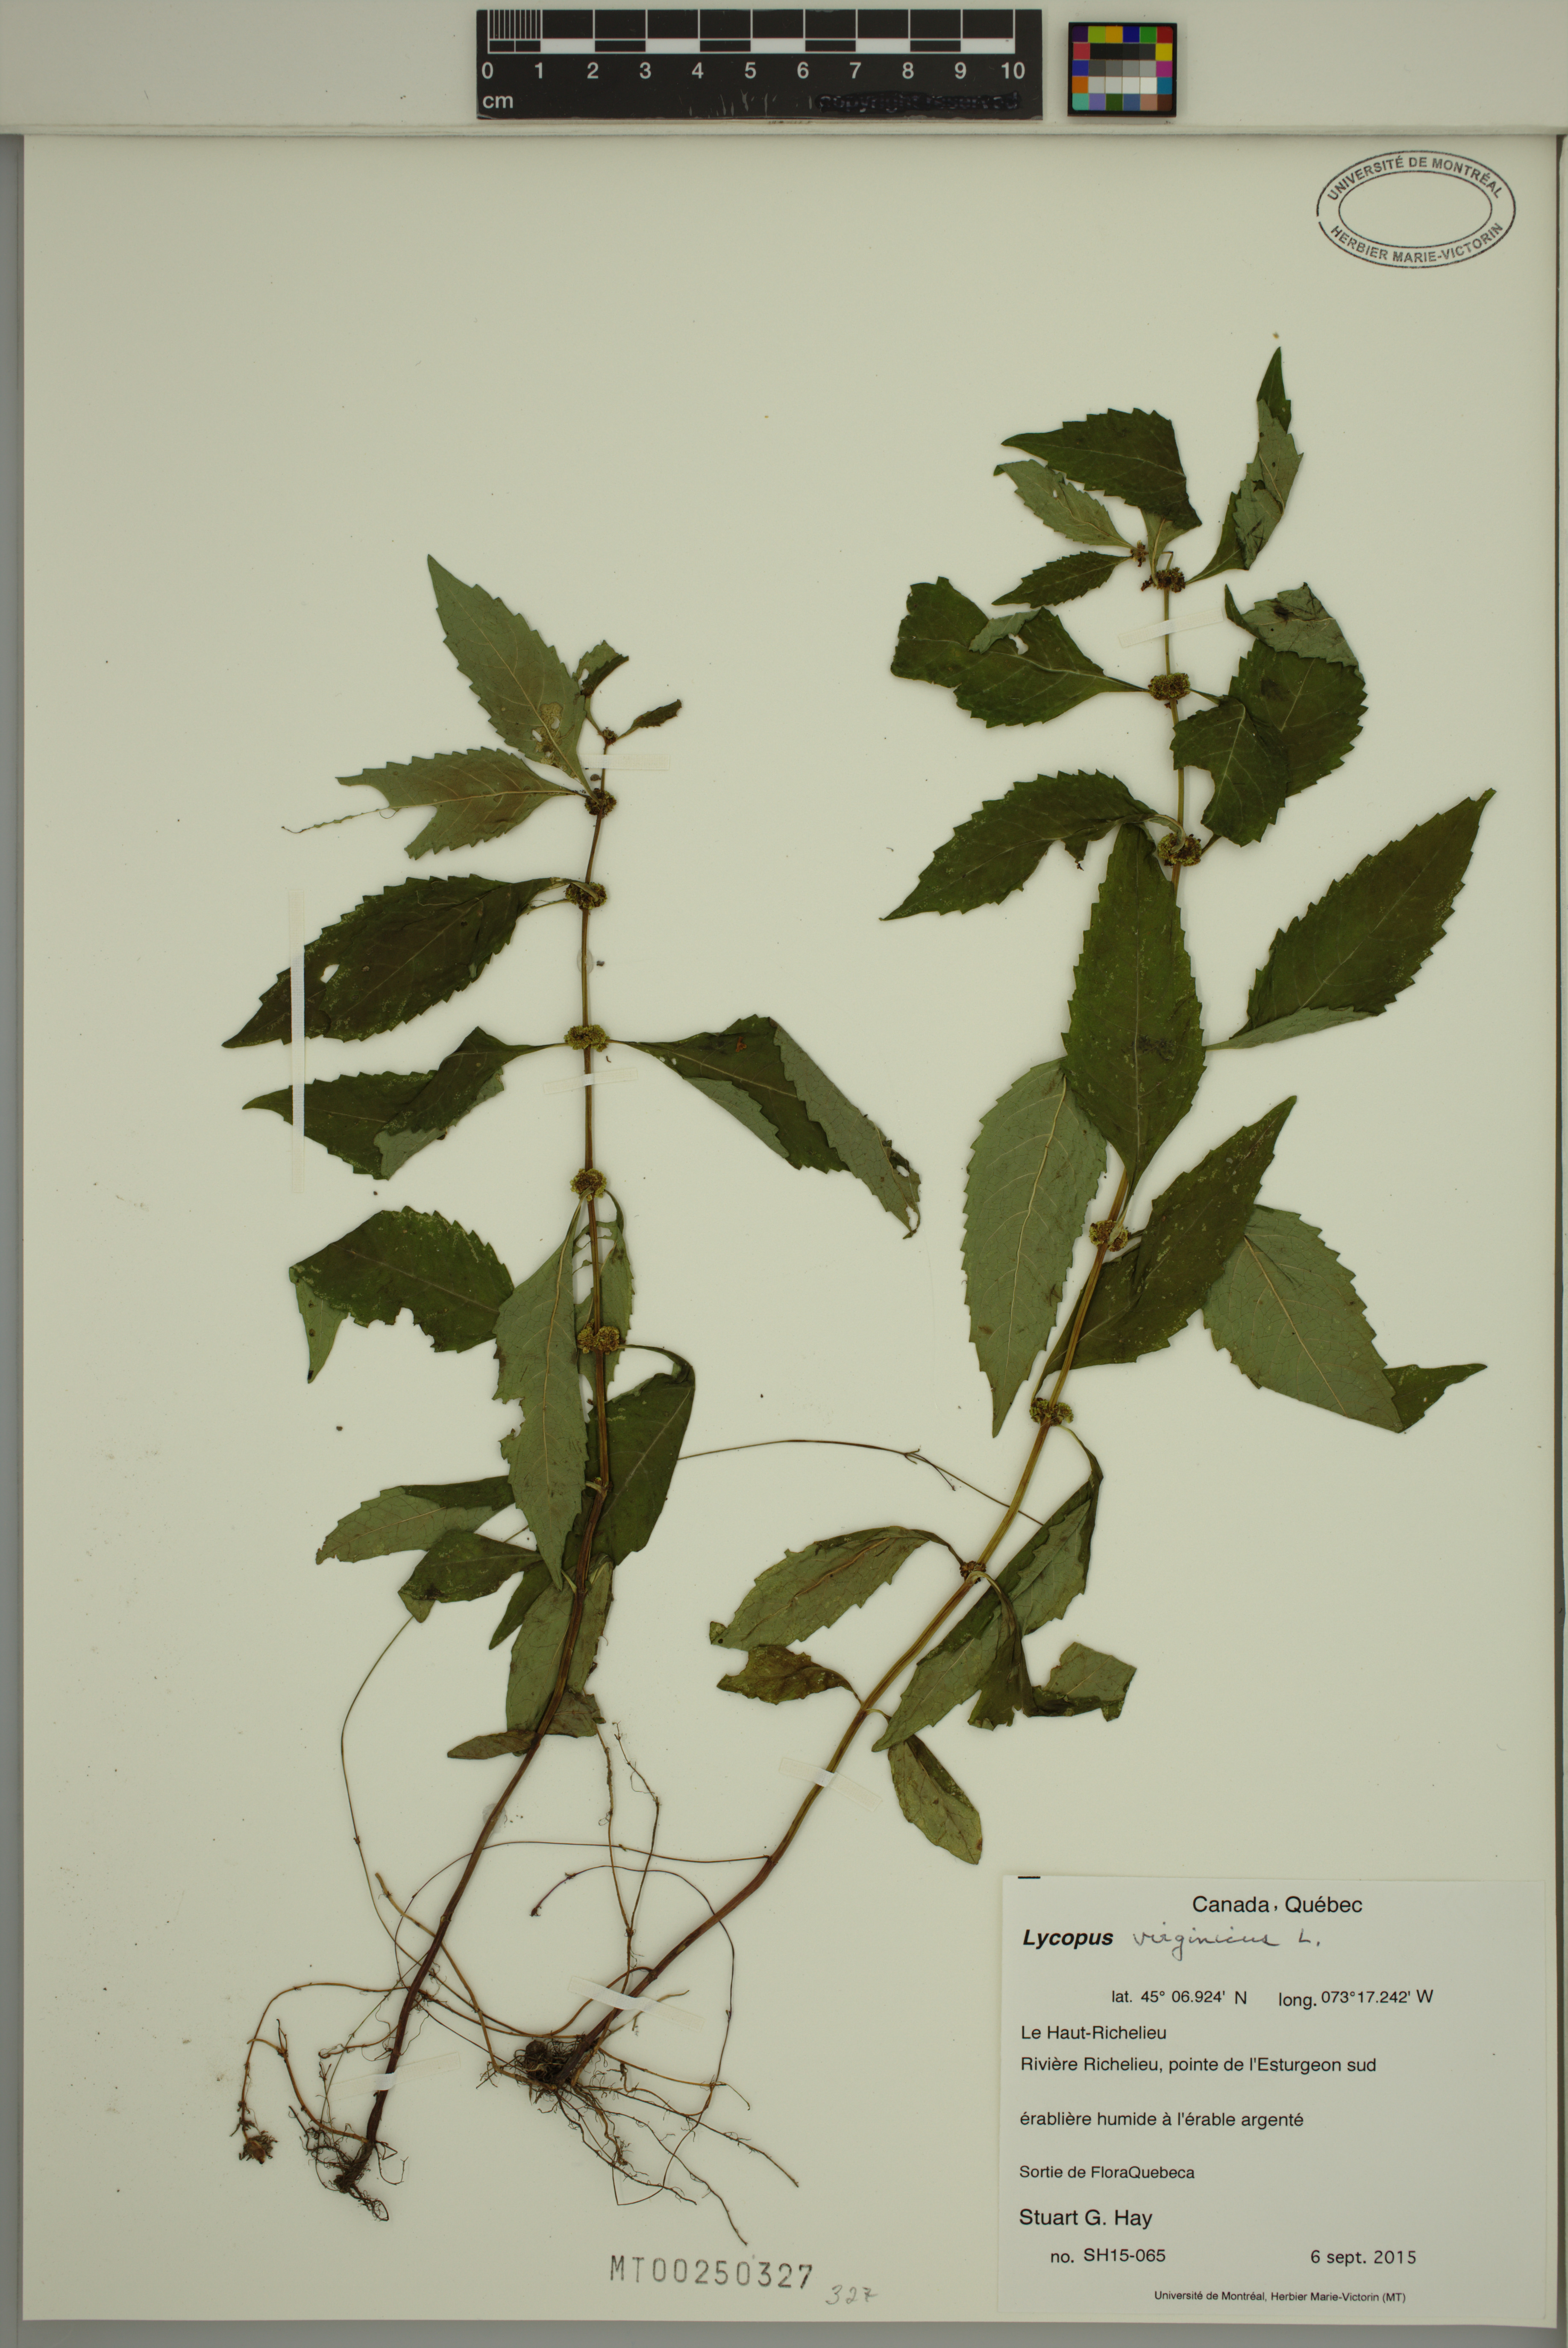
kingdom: Plantae
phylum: Tracheophyta
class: Magnoliopsida
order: Lamiales
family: Lamiaceae
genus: Lycopus
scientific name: Lycopus virginicus
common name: Bugleweed
